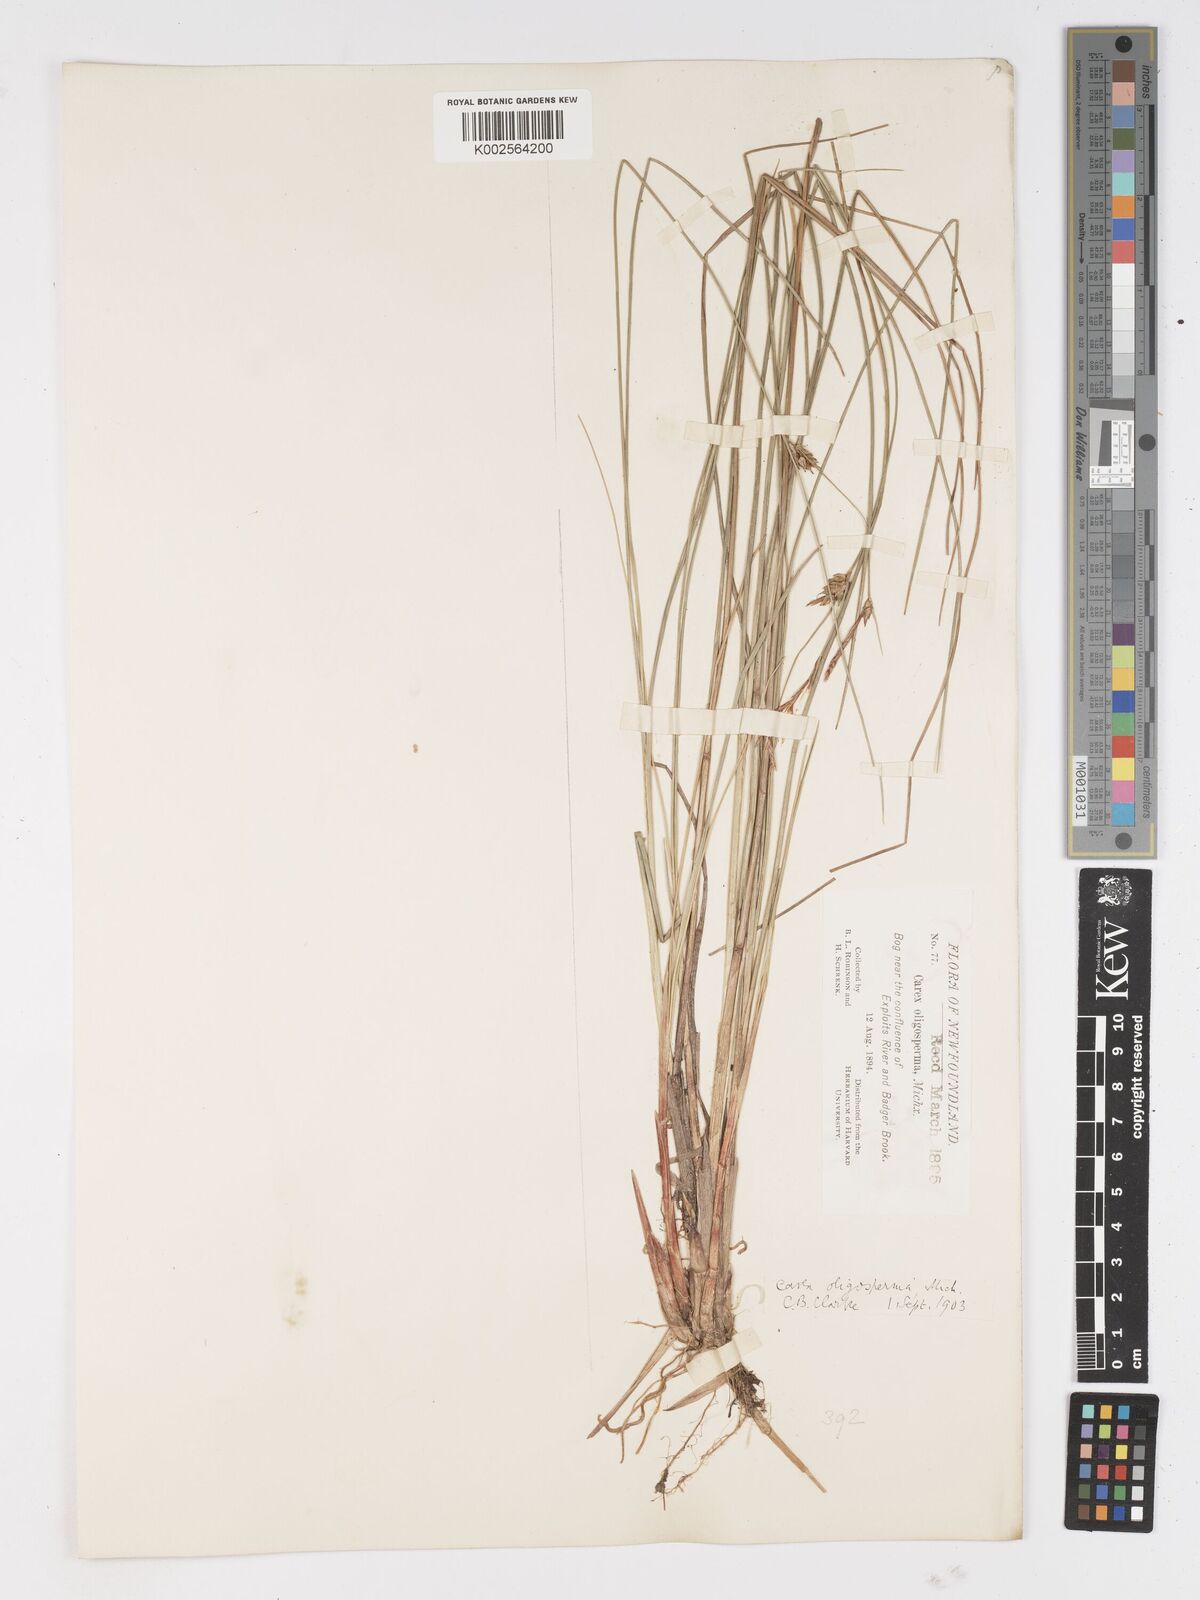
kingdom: Plantae
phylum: Tracheophyta
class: Liliopsida
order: Poales
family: Cyperaceae
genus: Carex
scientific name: Carex oligosperma
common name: Few-seed sedge
